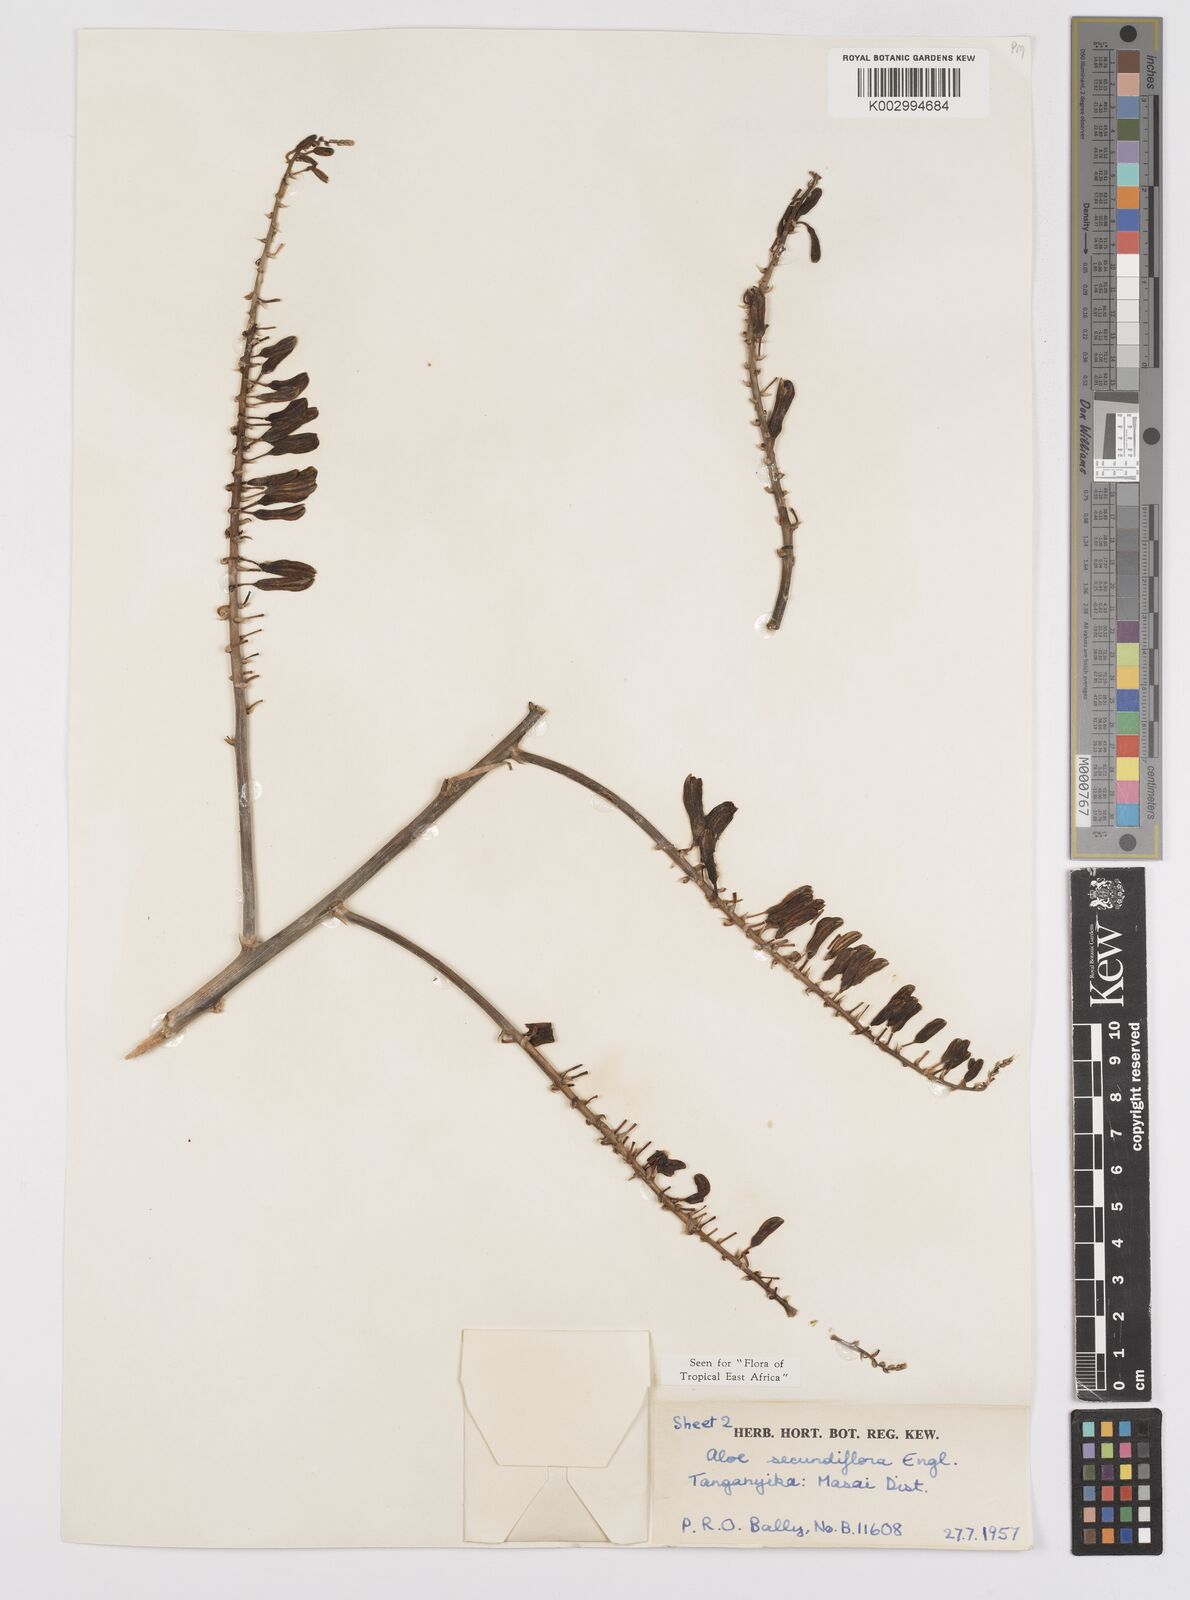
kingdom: Plantae
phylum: Tracheophyta
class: Liliopsida
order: Asparagales
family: Asphodelaceae
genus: Aloe
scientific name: Aloe secundiflora
